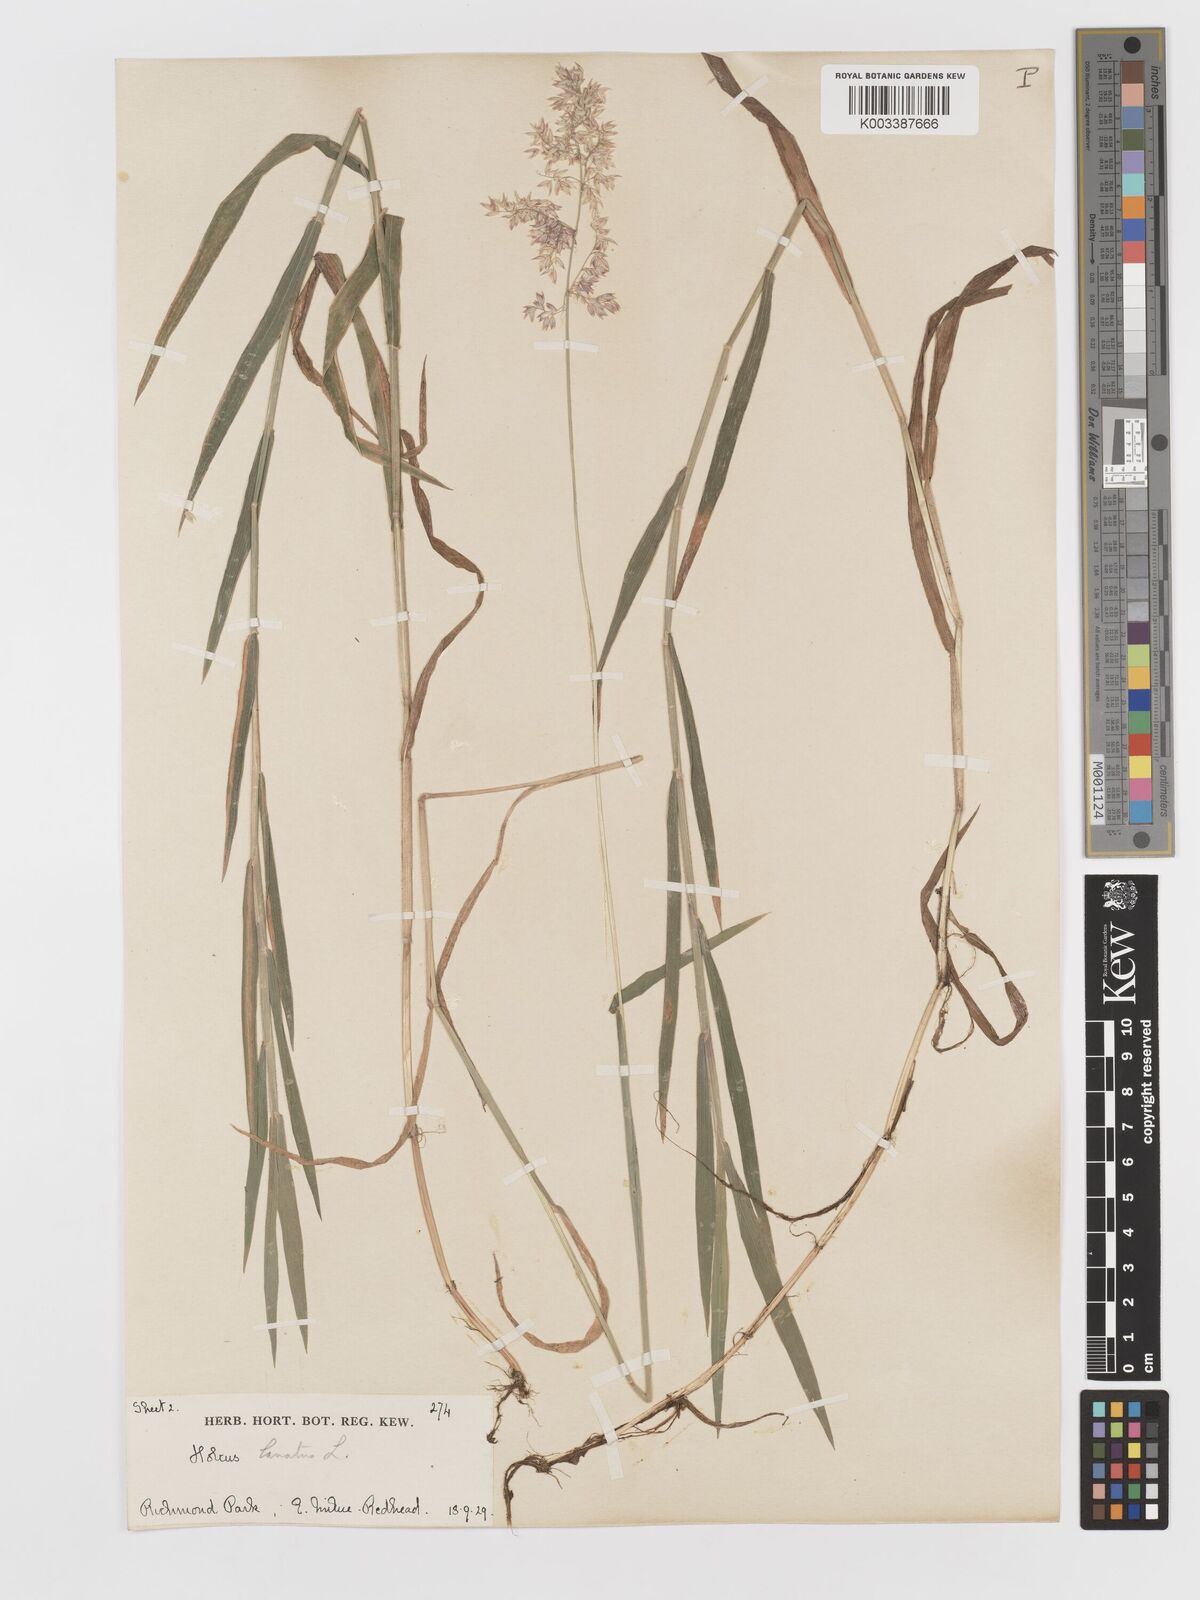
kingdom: Plantae
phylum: Tracheophyta
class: Liliopsida
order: Poales
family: Poaceae
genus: Holcus
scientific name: Holcus lanatus
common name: Yorkshire-fog
